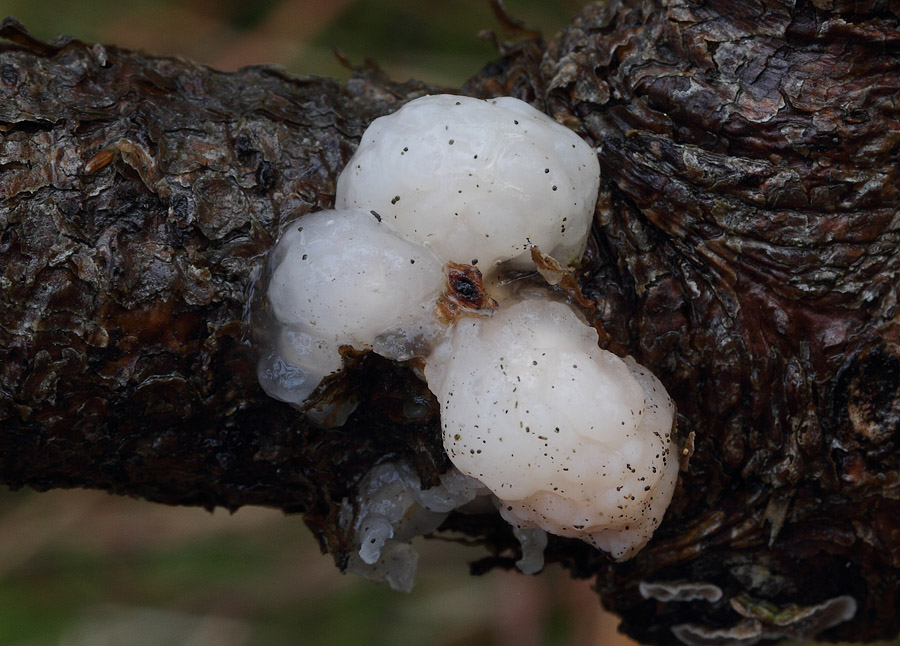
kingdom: Fungi
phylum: Basidiomycota
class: Tremellomycetes
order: Tremellales
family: Naemateliaceae
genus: Naematelia
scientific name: Naematelia encephala
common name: fyrre-bævresvamp
